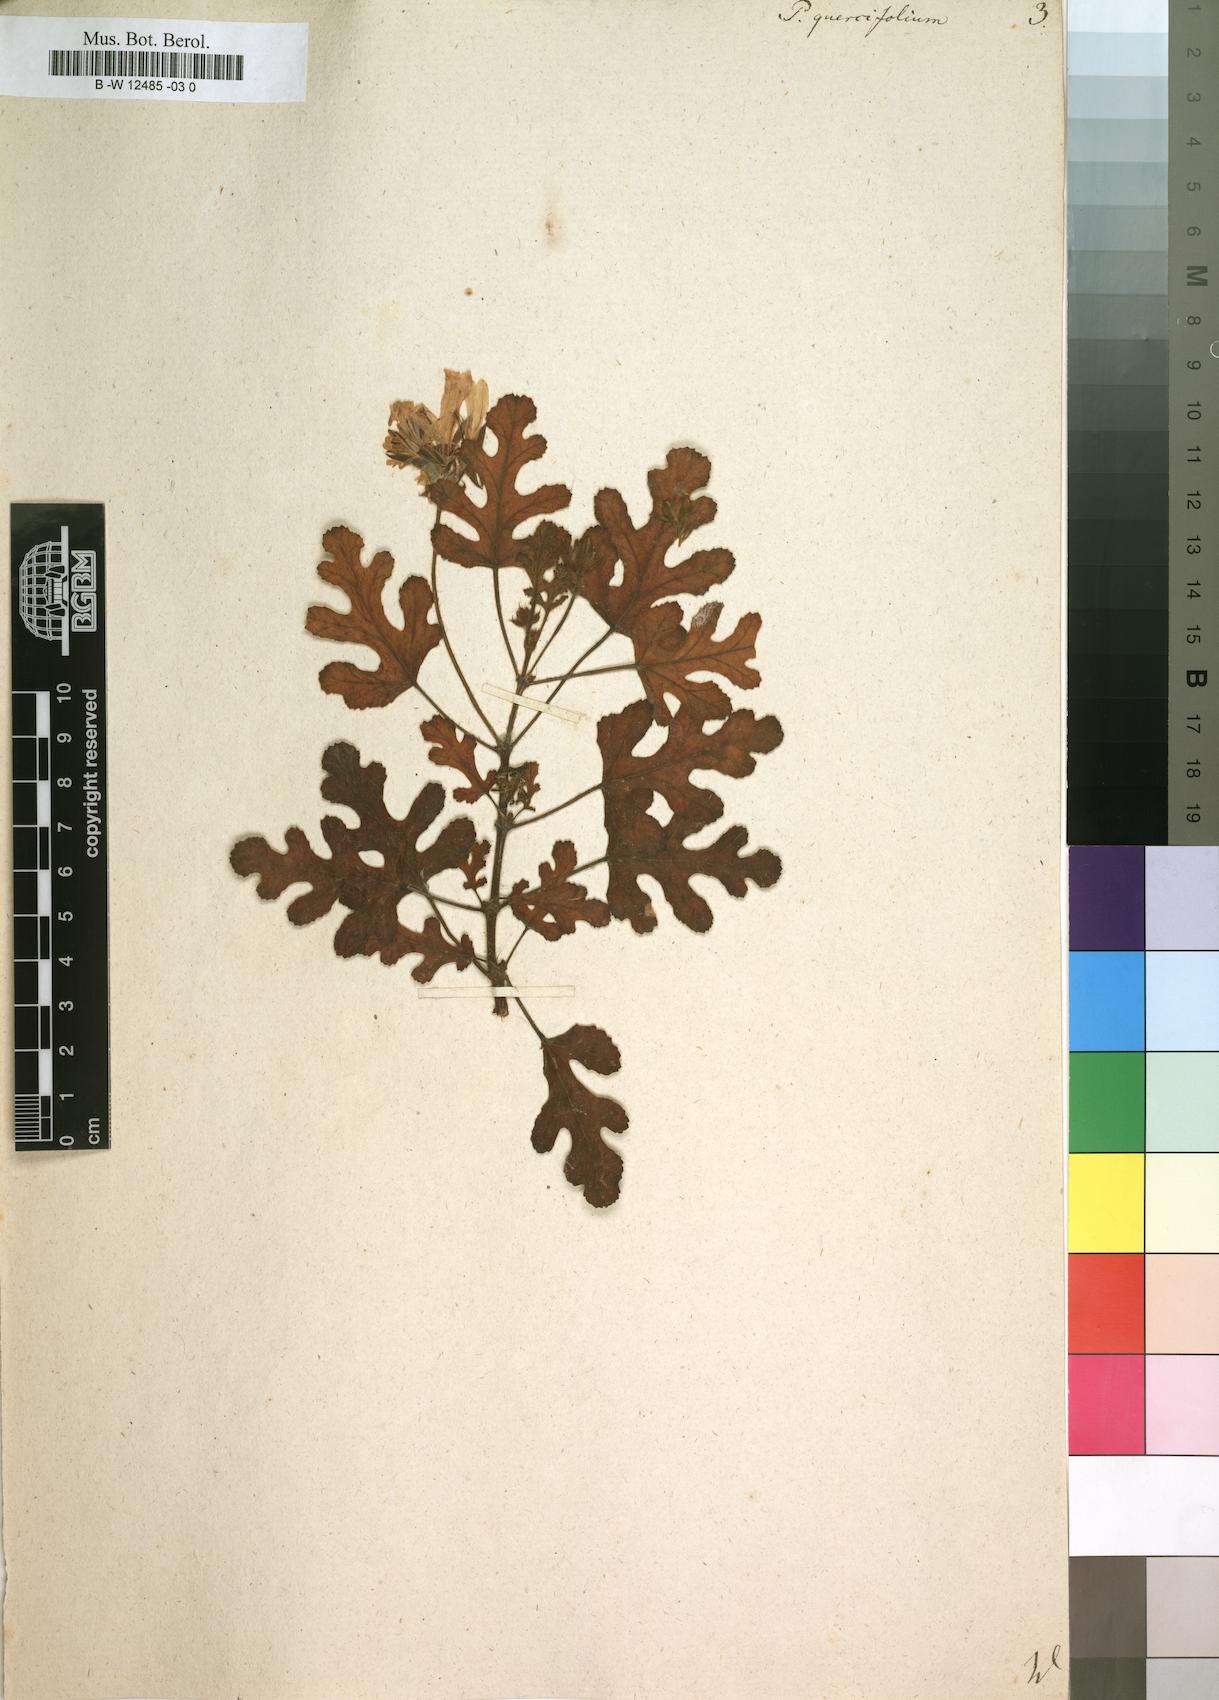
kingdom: Plantae
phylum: Tracheophyta
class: Magnoliopsida
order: Geraniales
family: Geraniaceae
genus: Pelargonium
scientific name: Pelargonium quercifolium
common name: Oakleaf geranium
